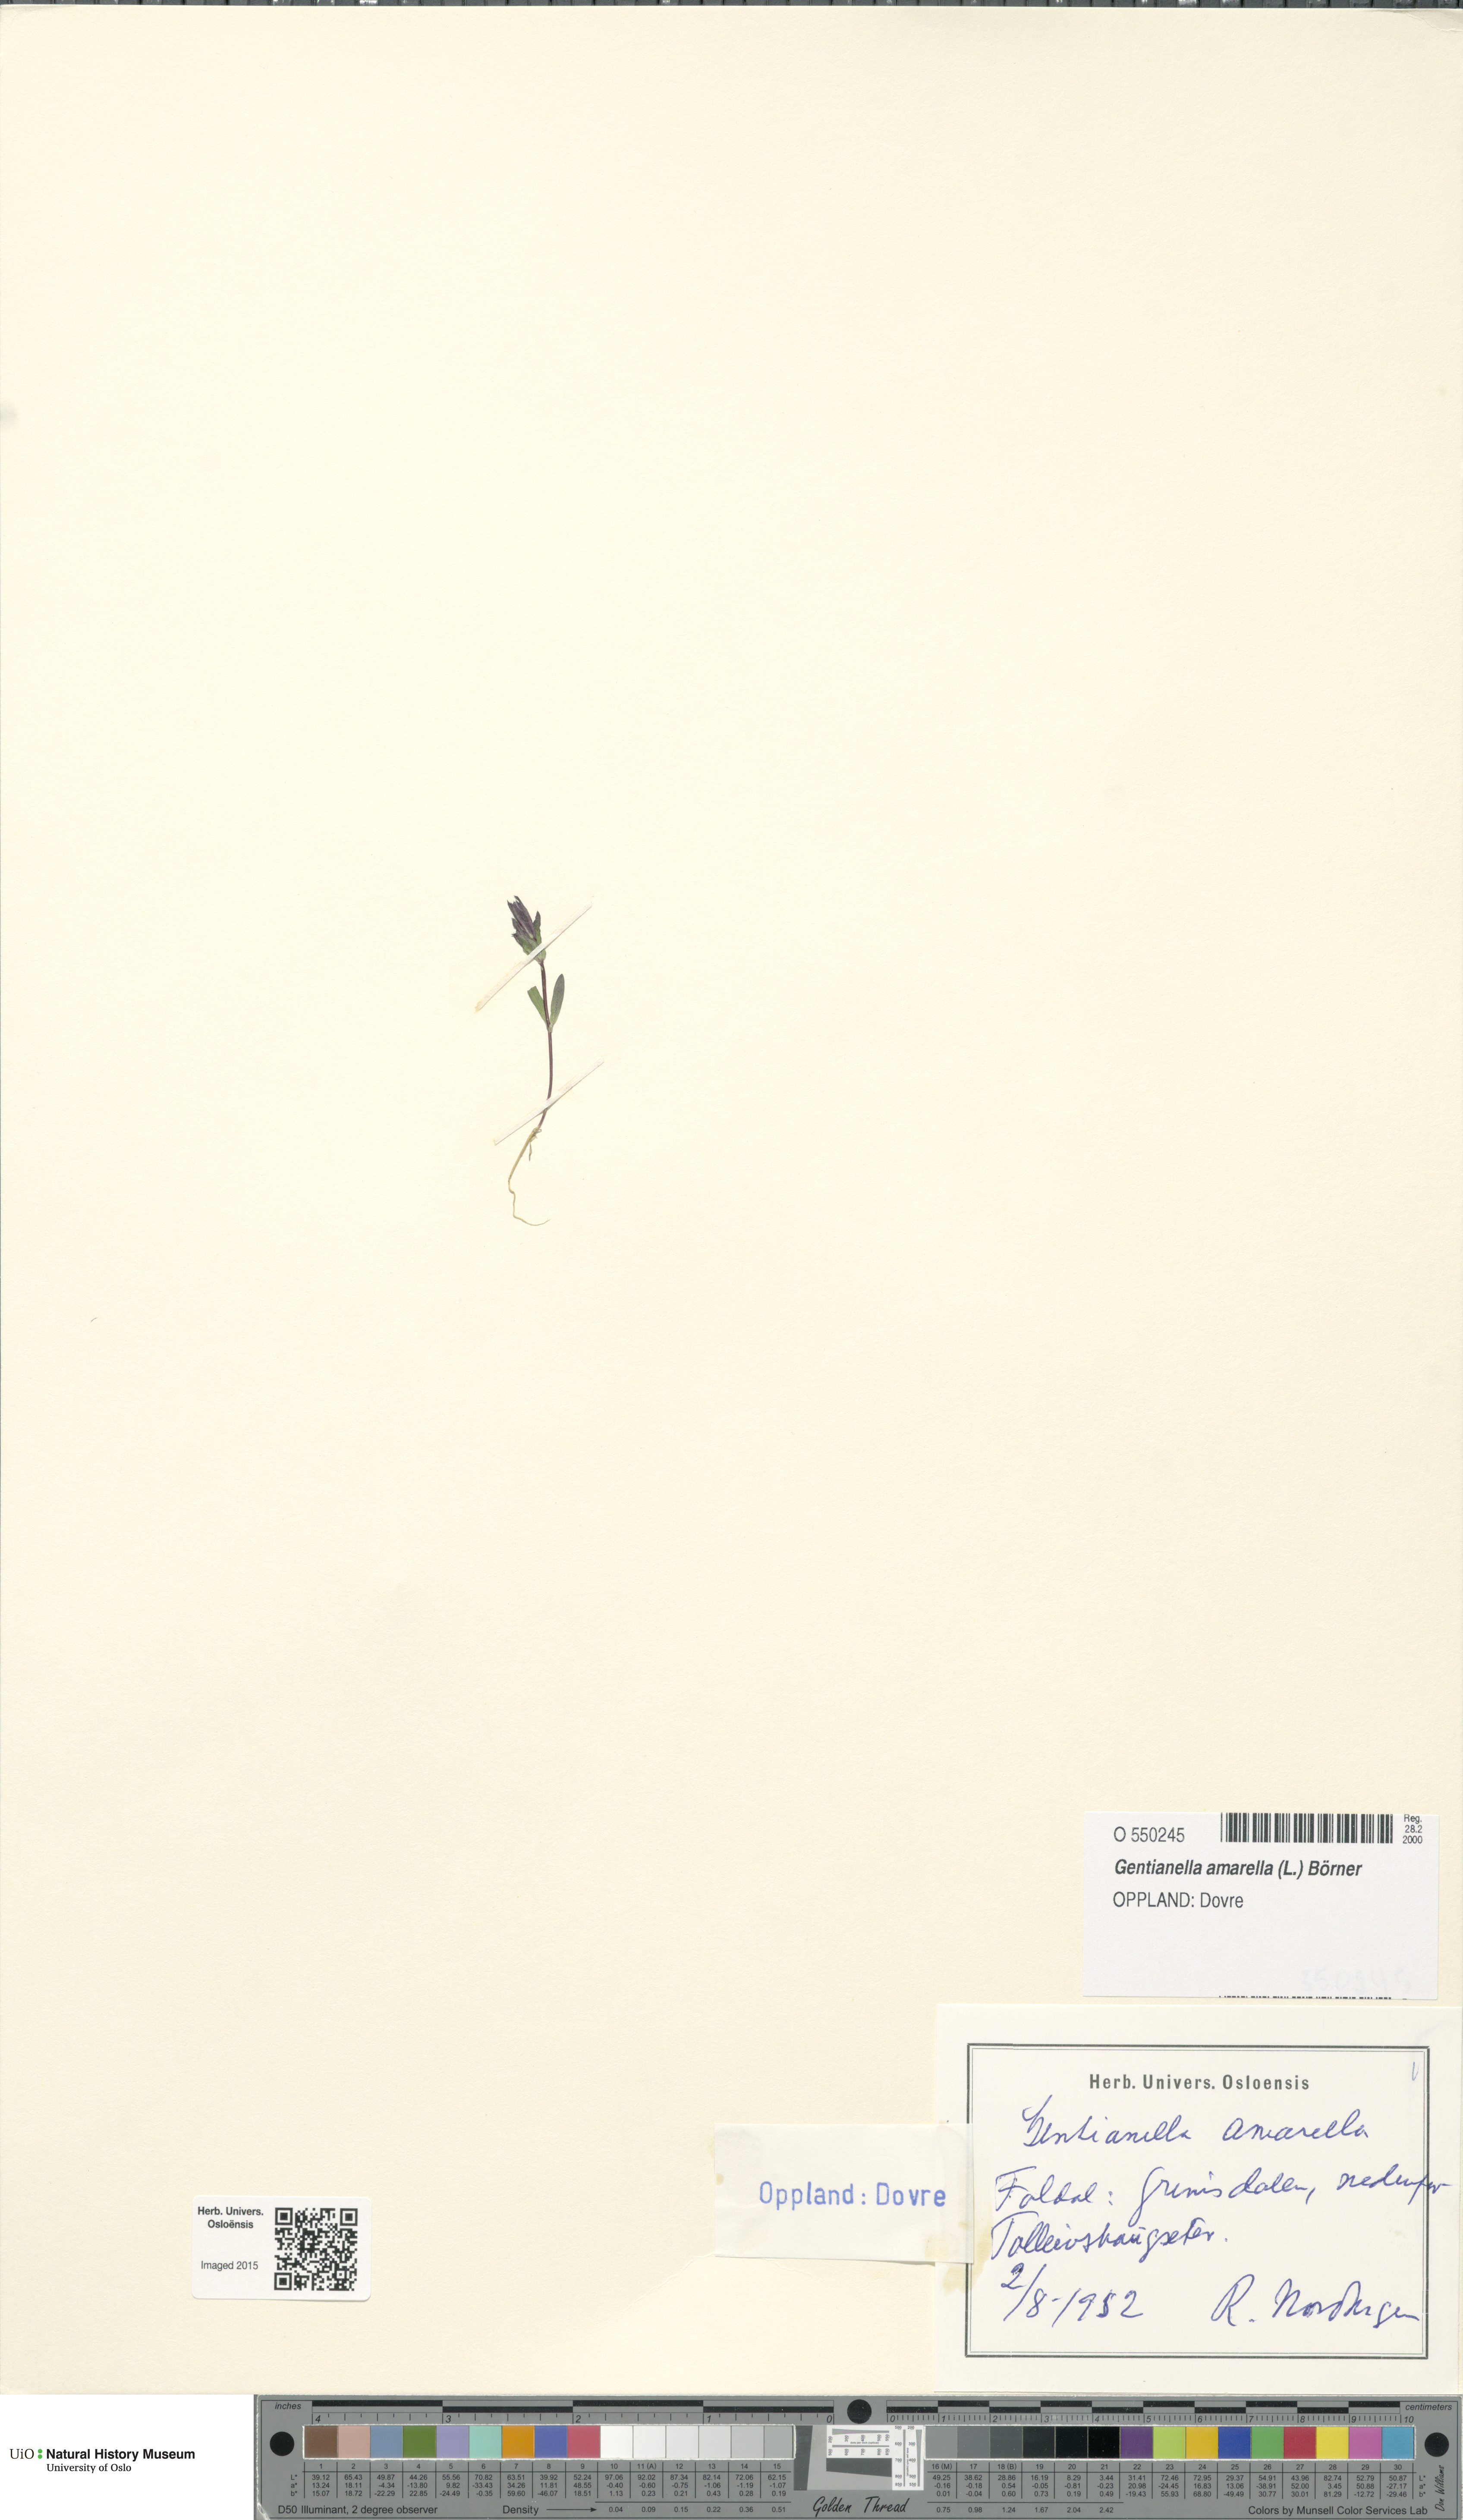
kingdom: Plantae
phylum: Tracheophyta
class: Magnoliopsida
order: Gentianales
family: Gentianaceae
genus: Gentianella
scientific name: Gentianella amarella
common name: Autumn gentian
